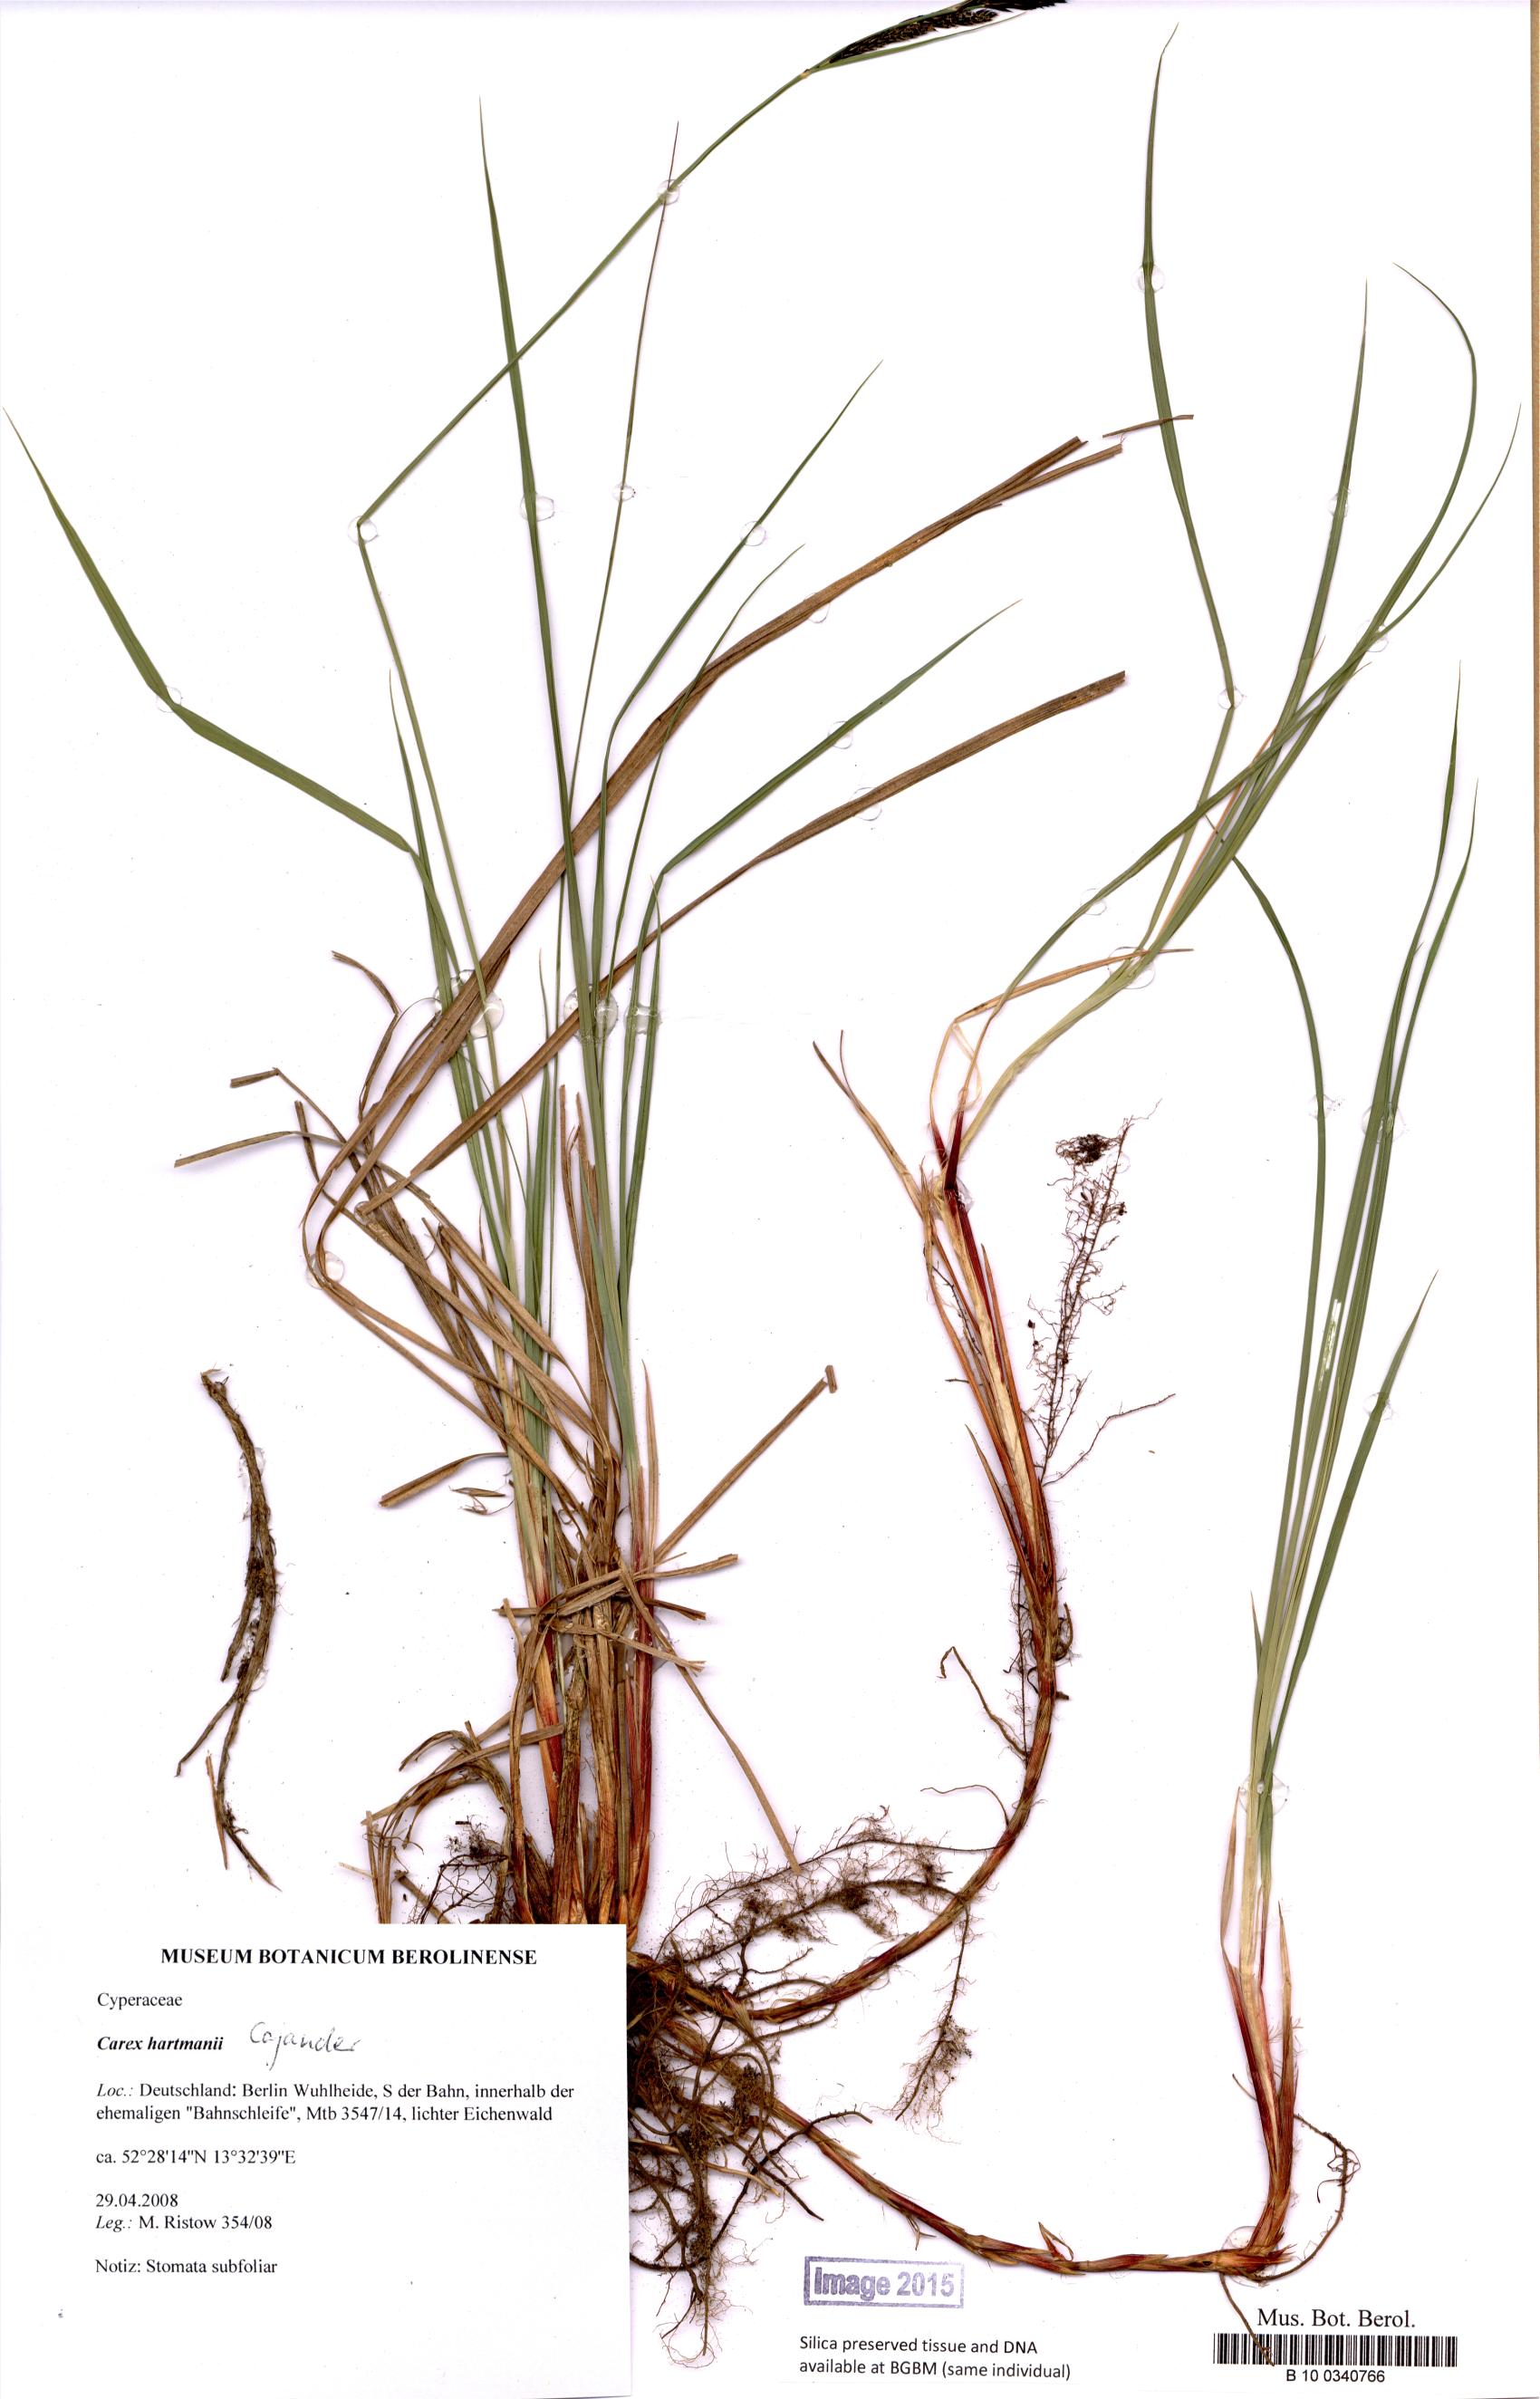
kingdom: Plantae
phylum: Tracheophyta
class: Liliopsida
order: Poales
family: Cyperaceae
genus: Carex
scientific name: Carex hartmaniorum
